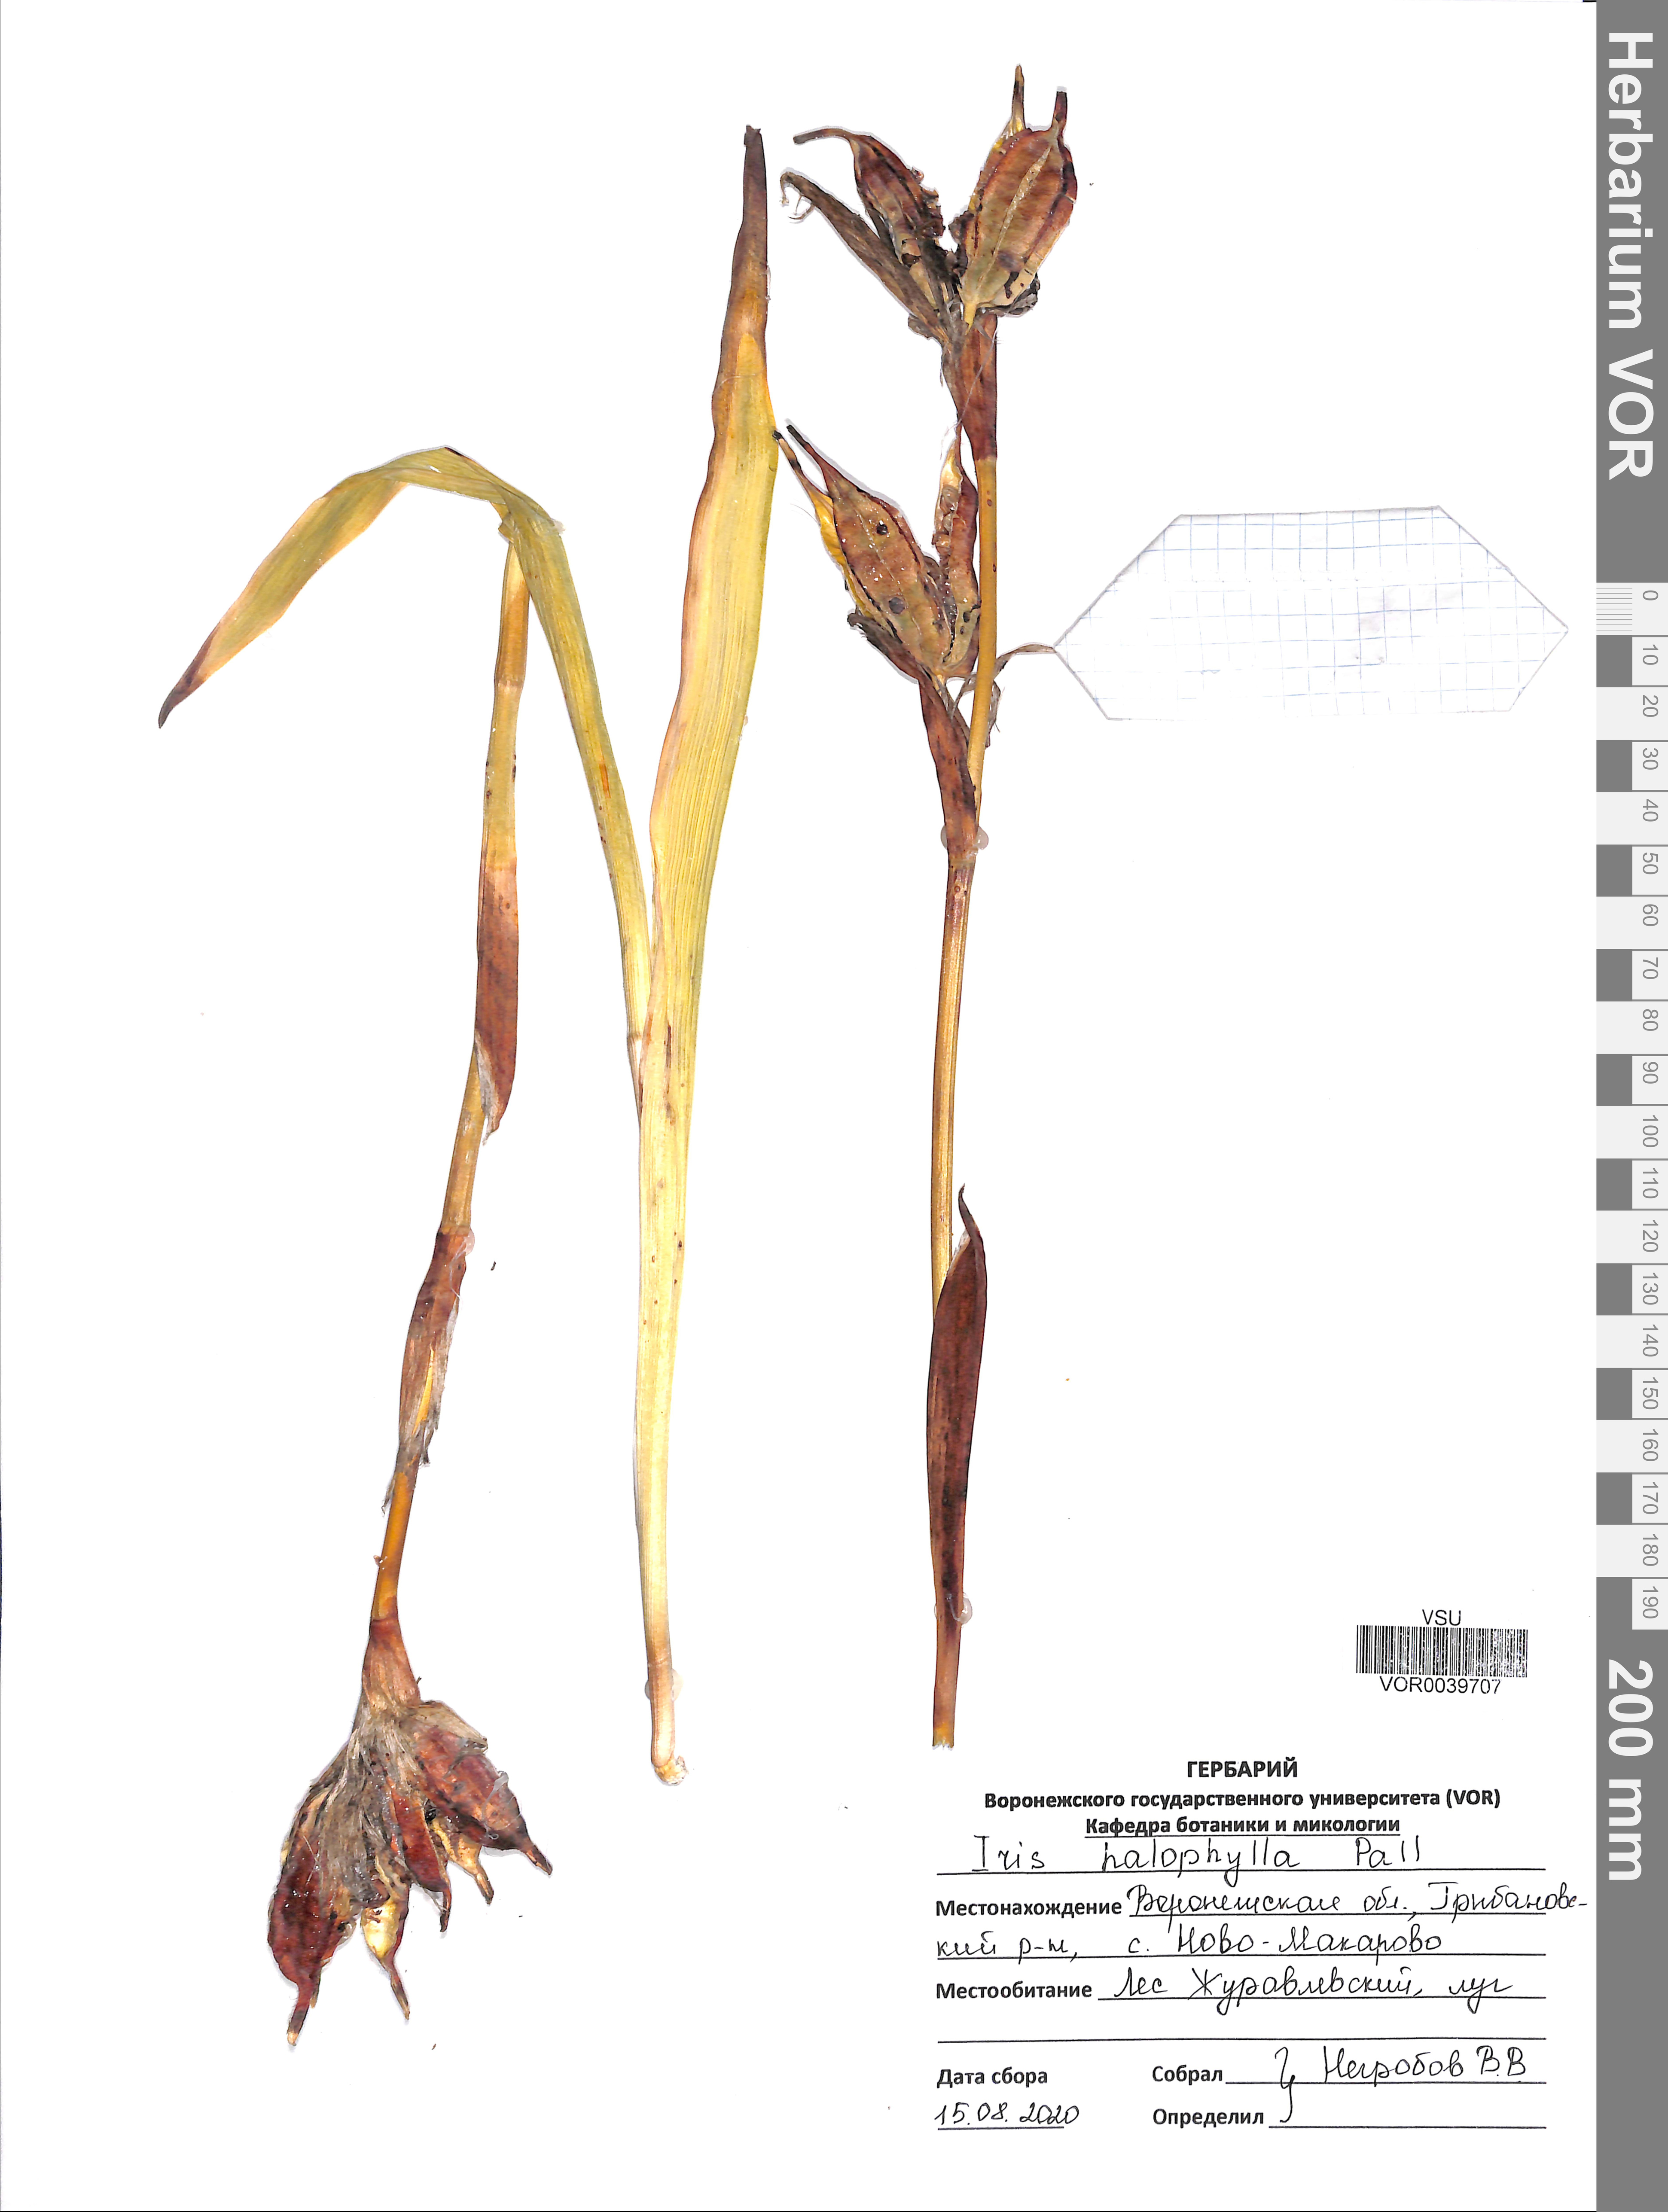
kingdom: Plantae
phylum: Tracheophyta
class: Liliopsida
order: Asparagales
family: Iridaceae
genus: Iris
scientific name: Iris halophila
